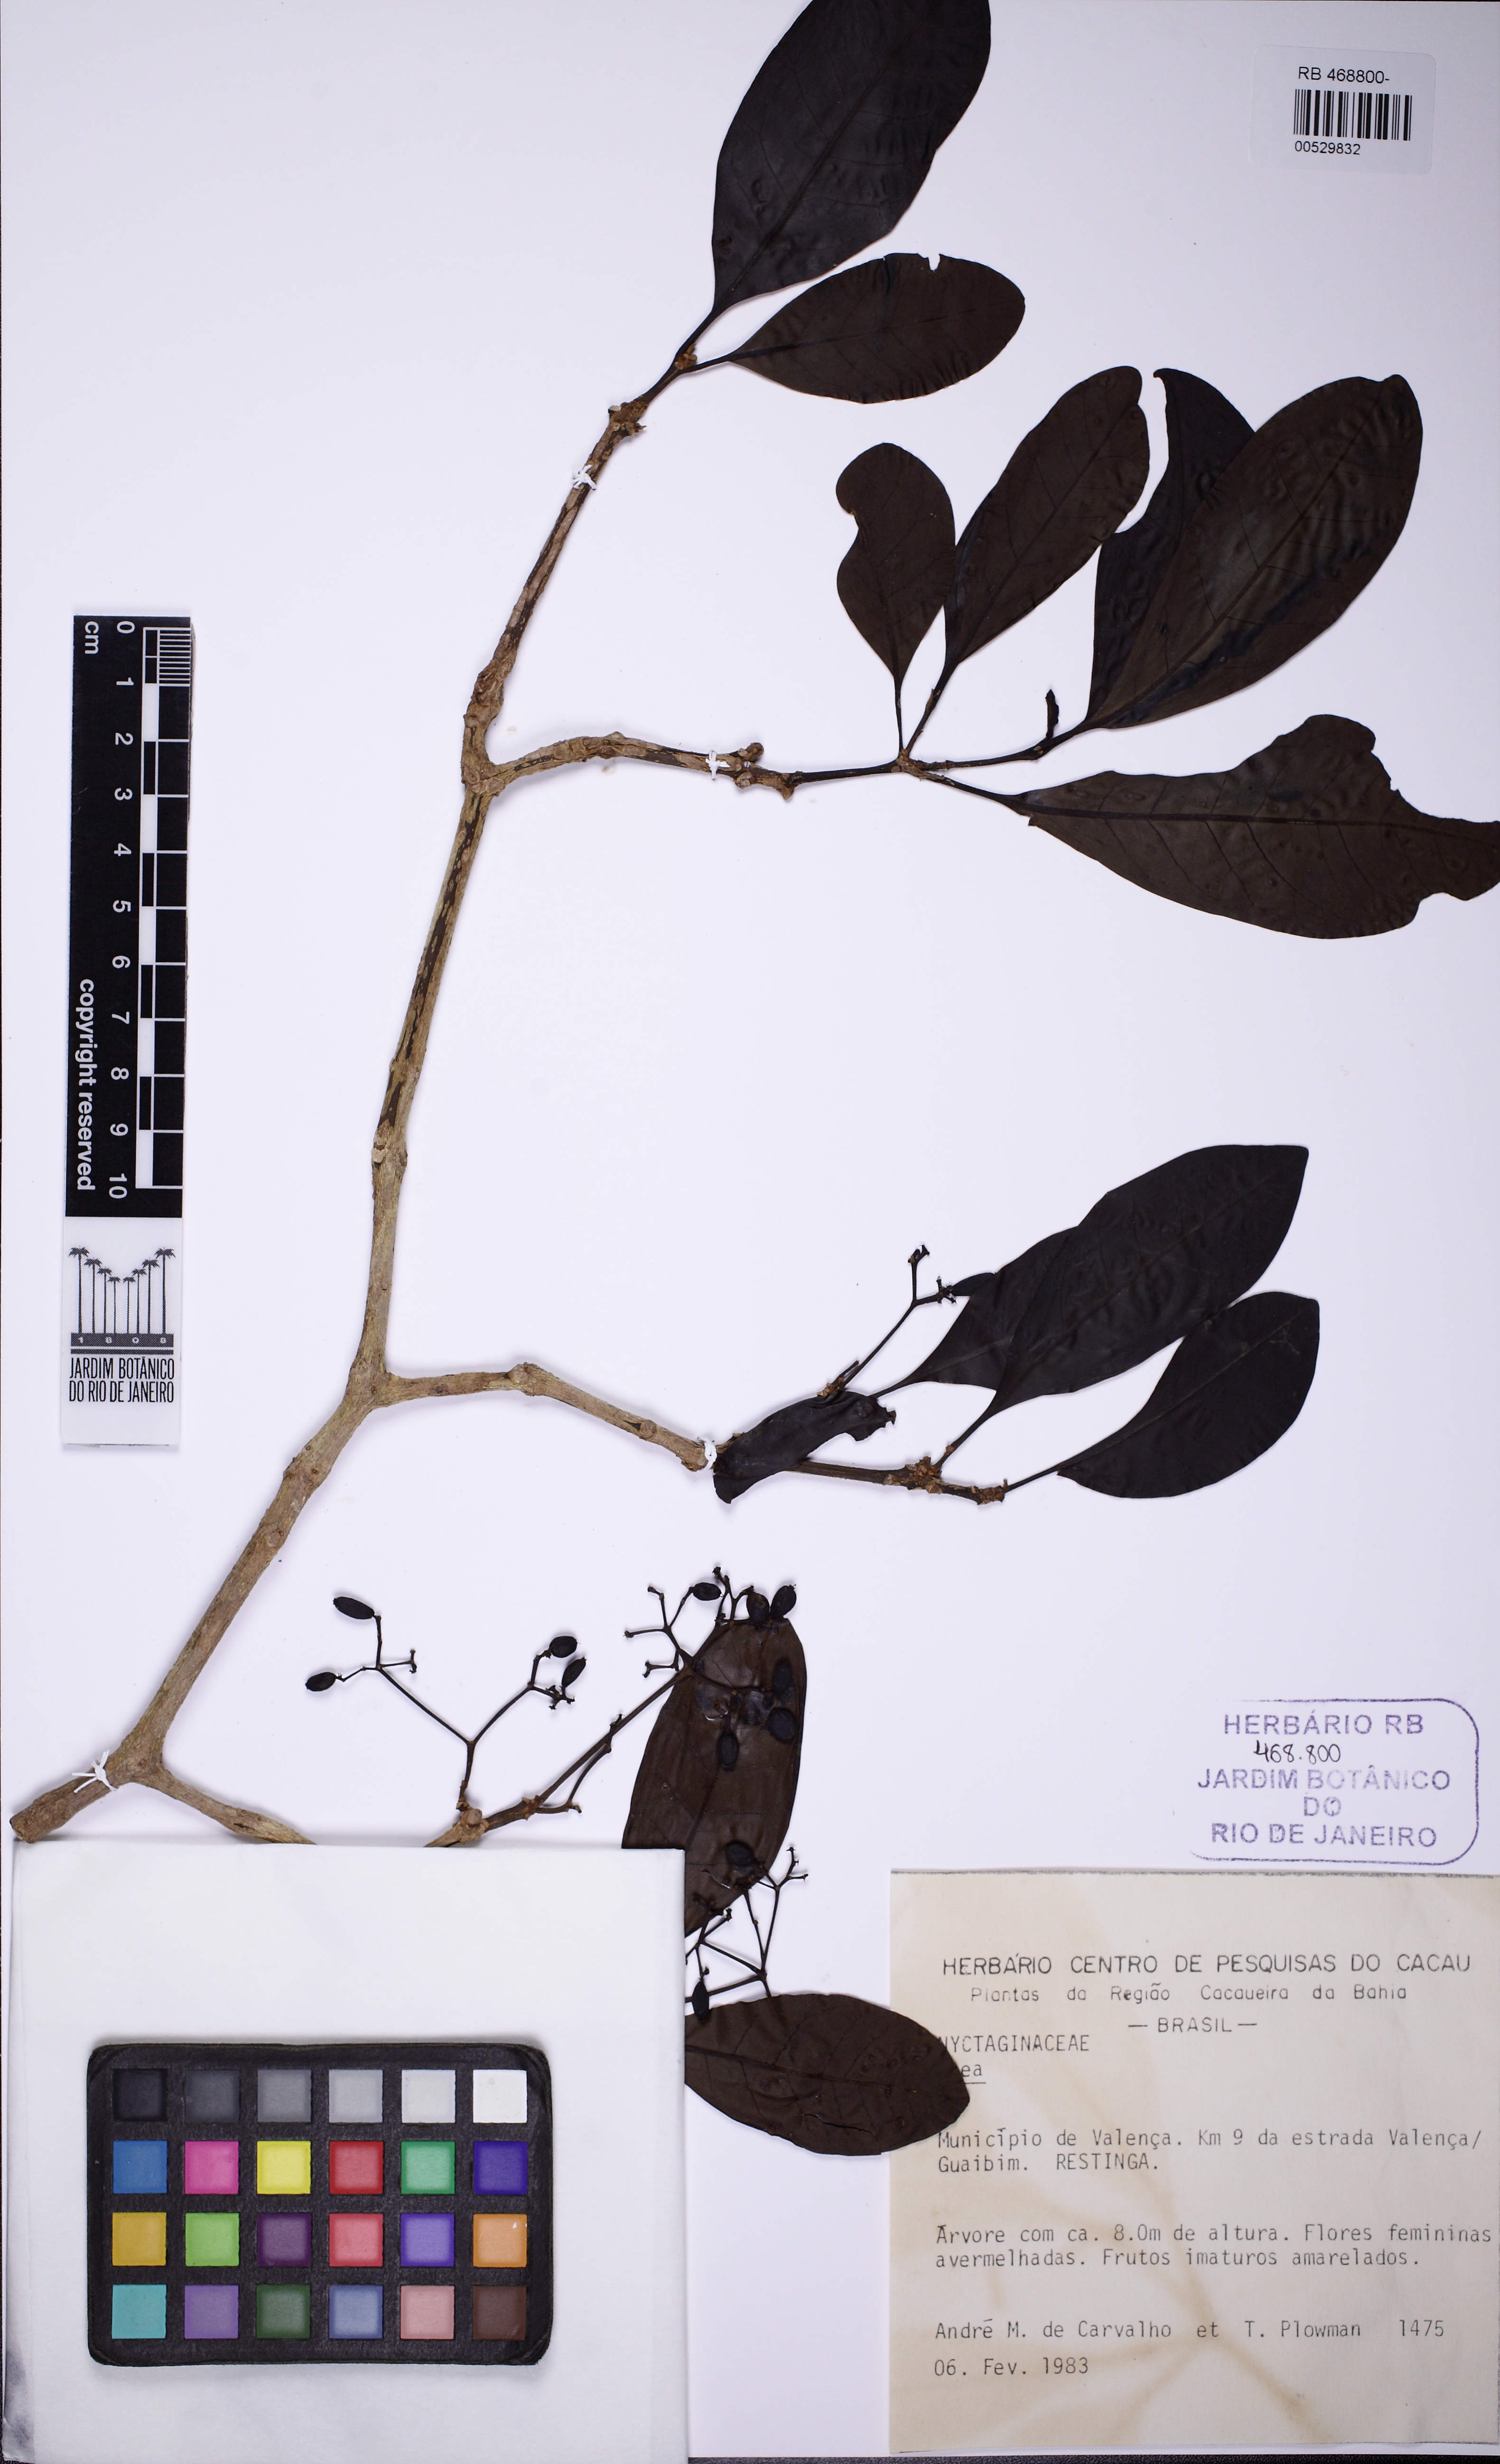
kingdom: Plantae
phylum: Tracheophyta
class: Magnoliopsida
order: Caryophyllales
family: Nyctaginaceae
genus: Neea
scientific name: Neea
